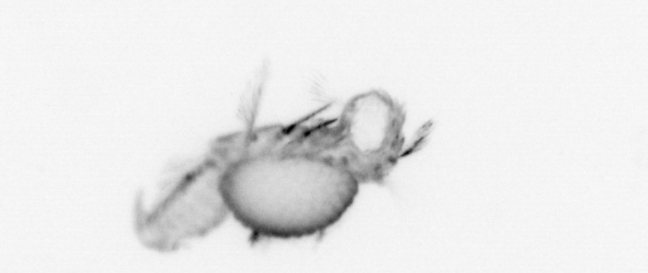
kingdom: Animalia
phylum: Annelida
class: Polychaeta
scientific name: Polychaeta
